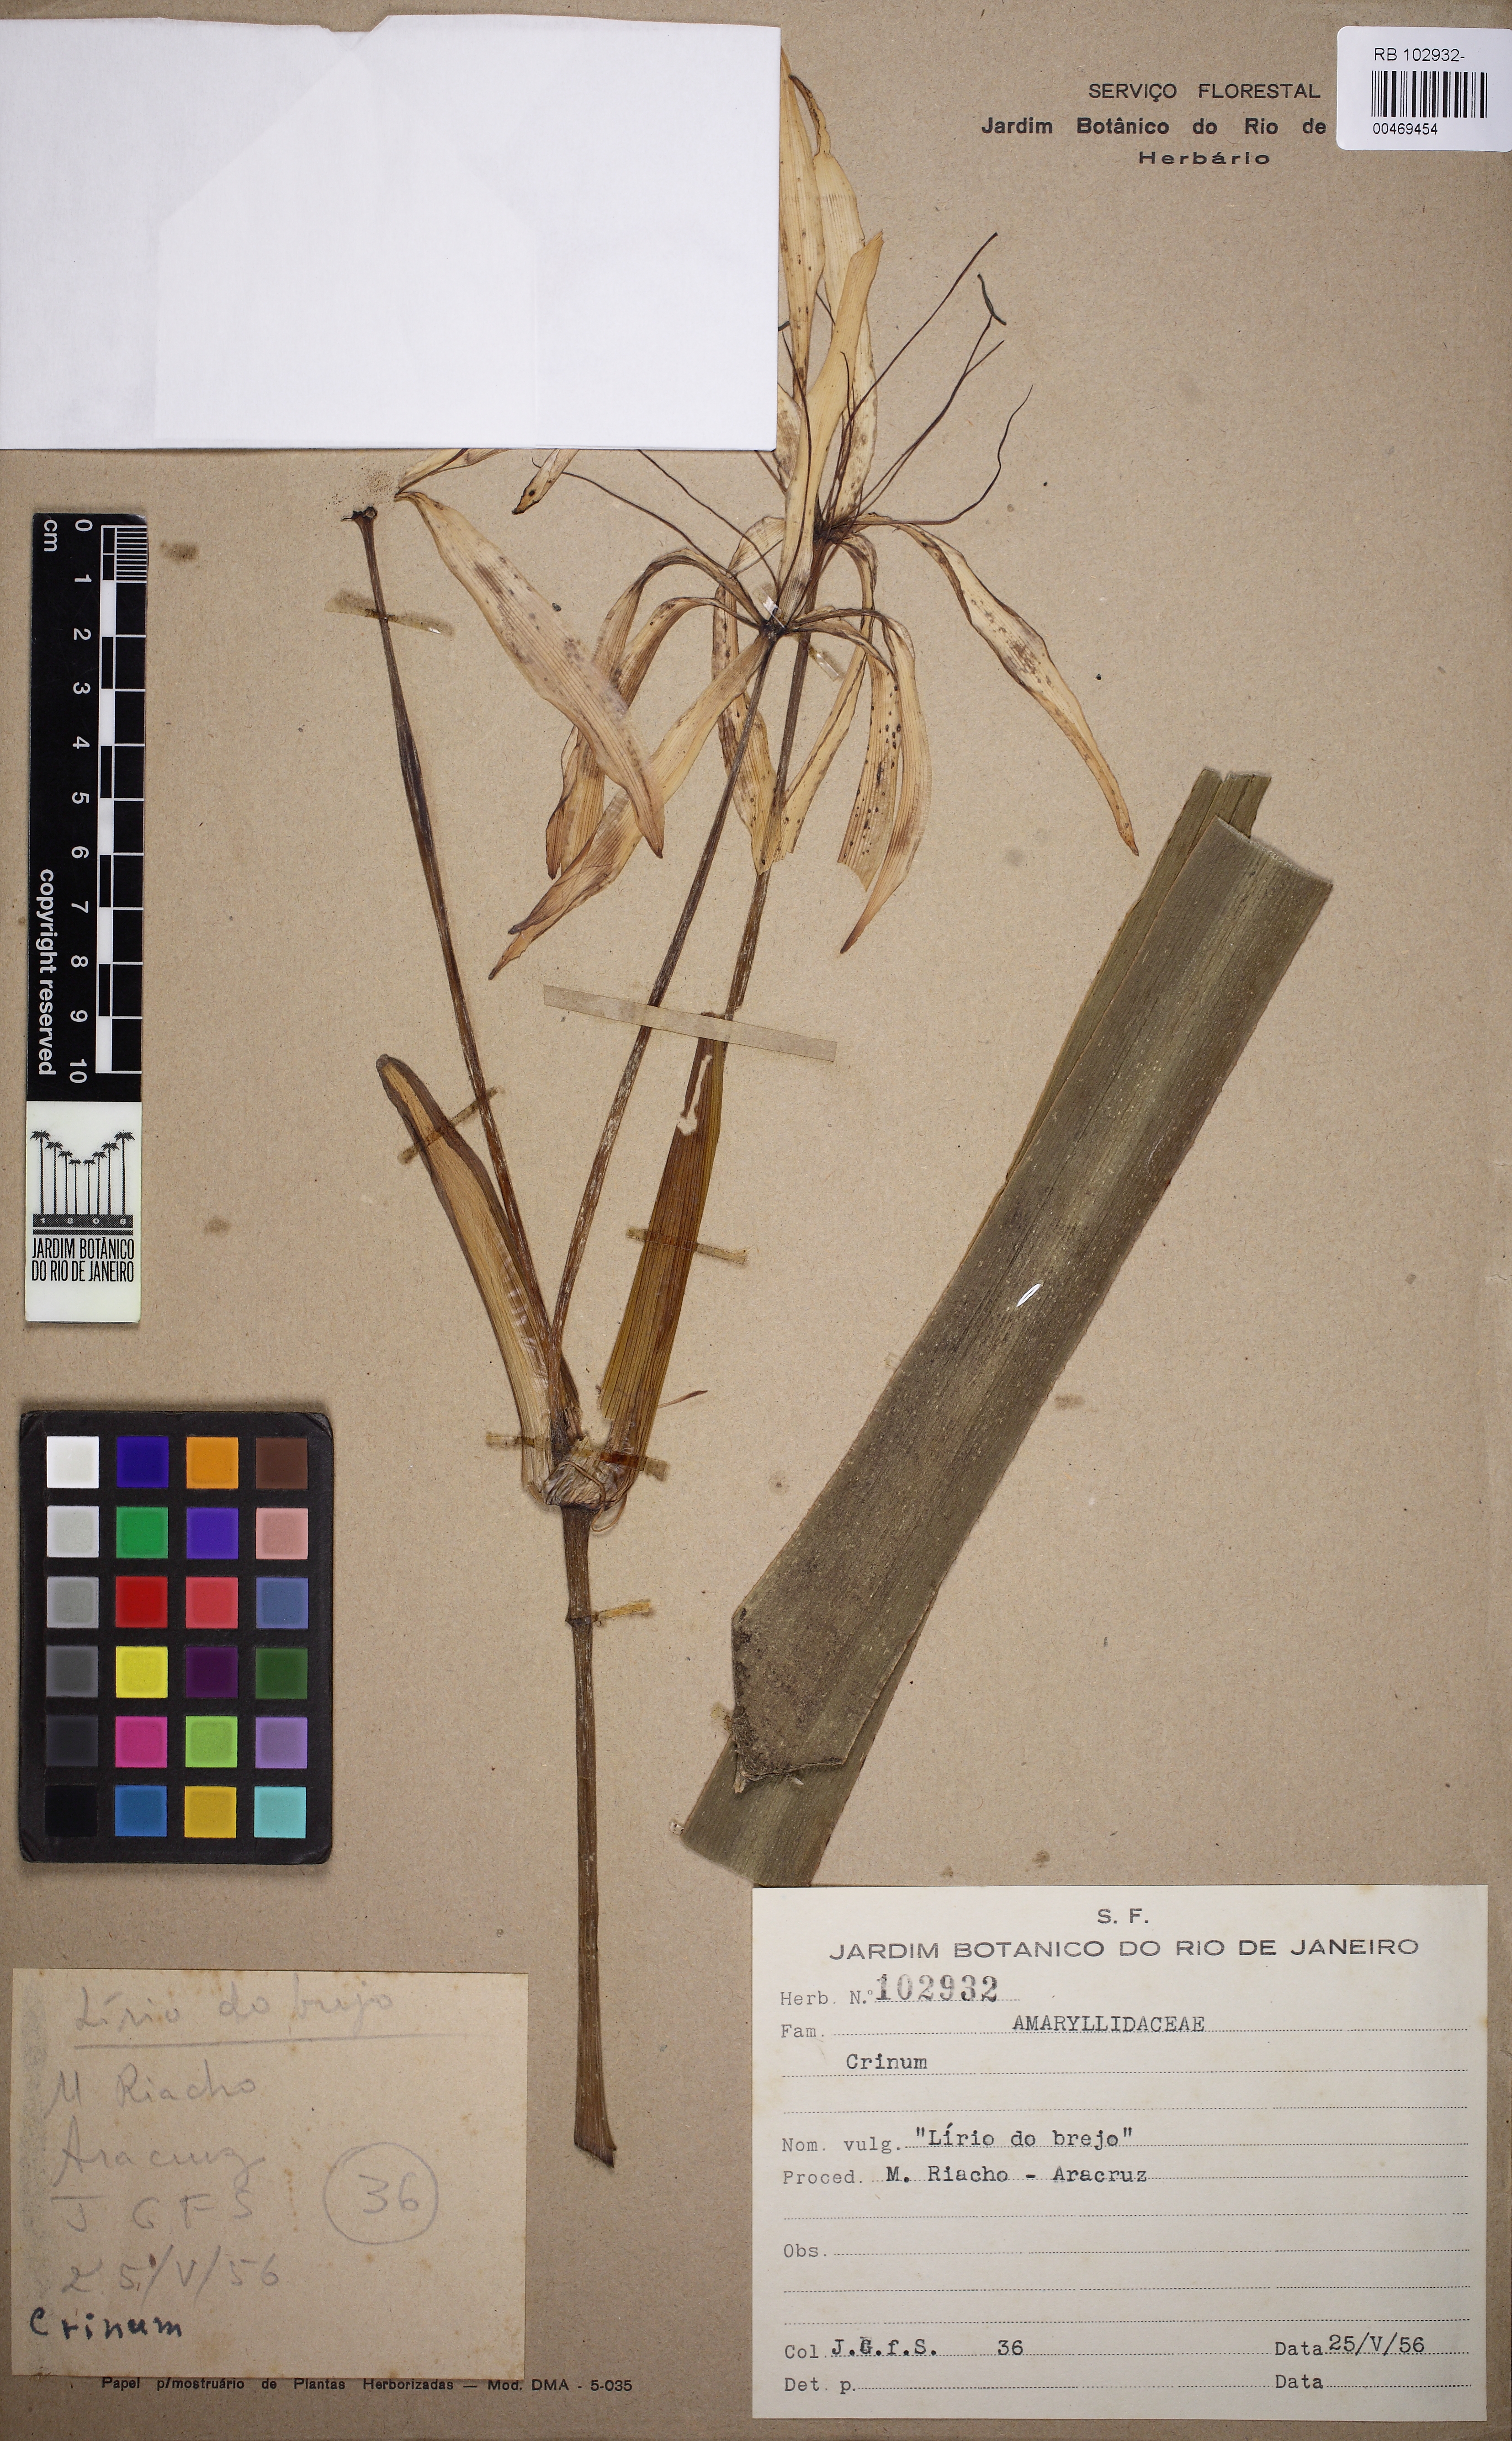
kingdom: Plantae
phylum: Tracheophyta
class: Liliopsida
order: Asparagales
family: Amaryllidaceae
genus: Crinum
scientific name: Crinum
